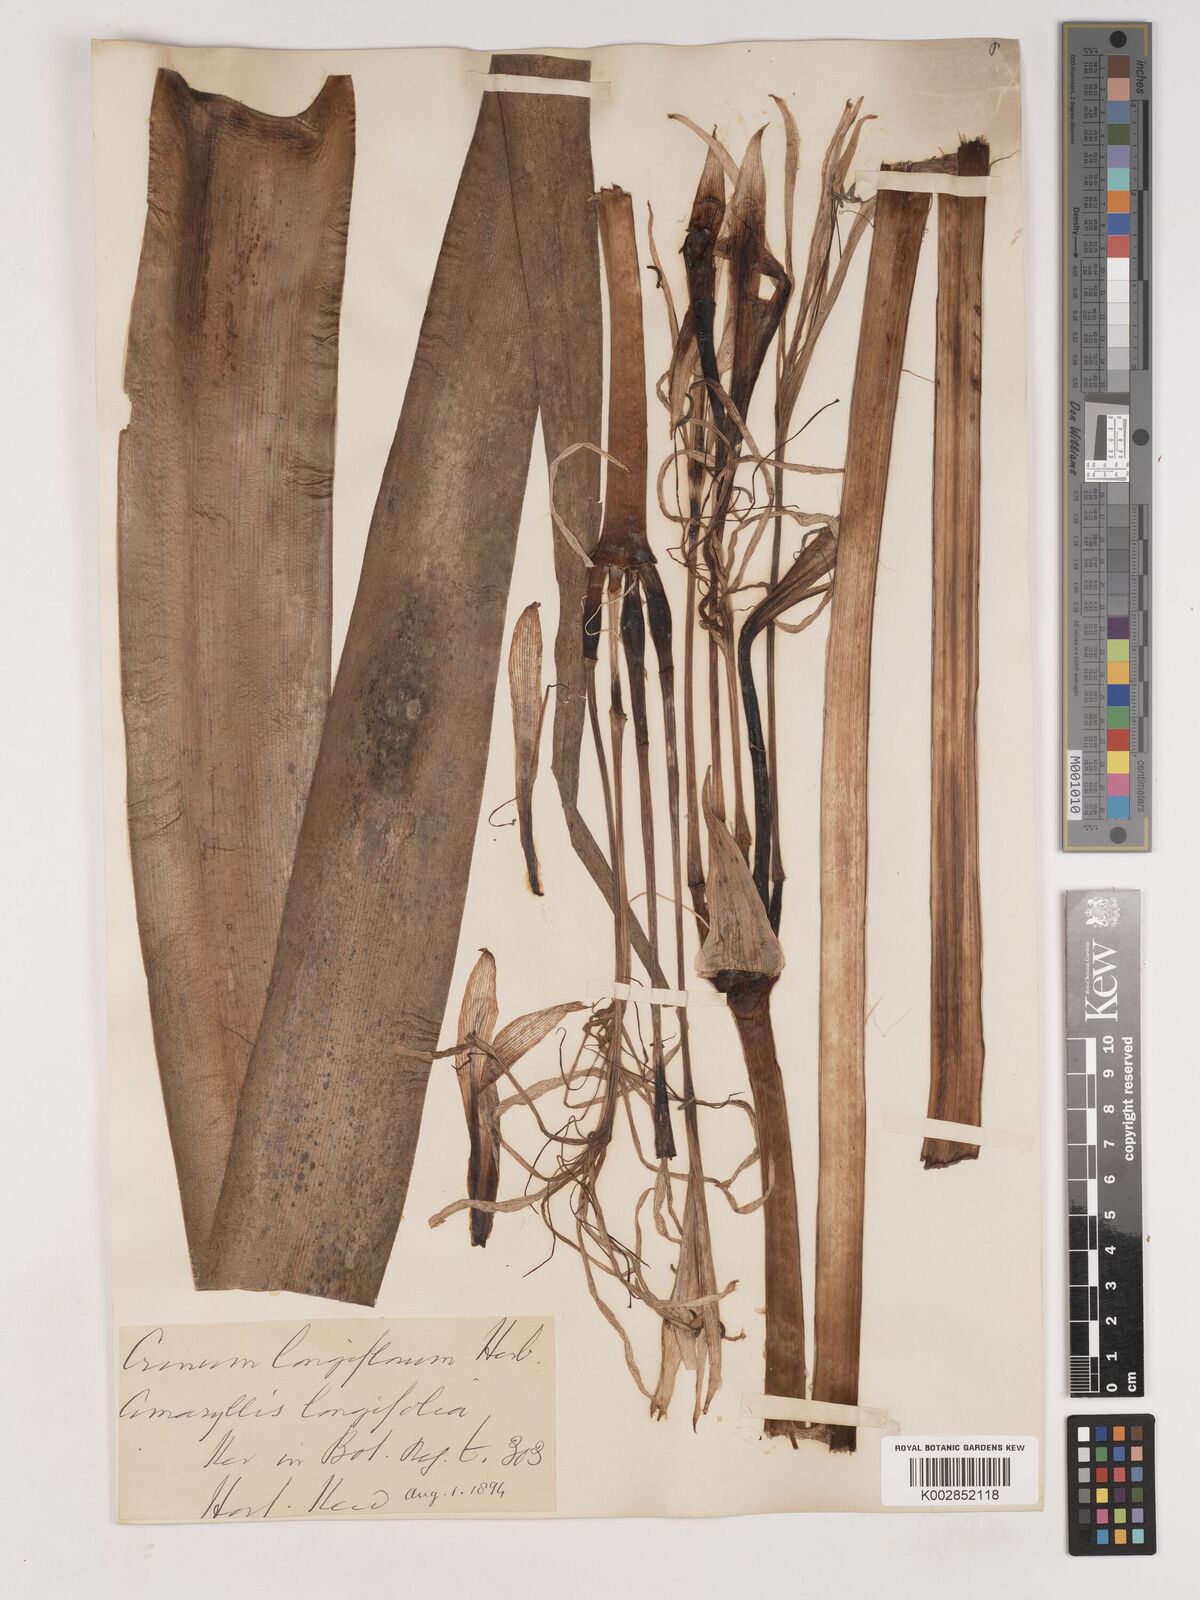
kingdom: Plantae
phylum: Tracheophyta
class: Liliopsida
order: Asparagales
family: Amaryllidaceae
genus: Crinum
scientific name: Crinum
